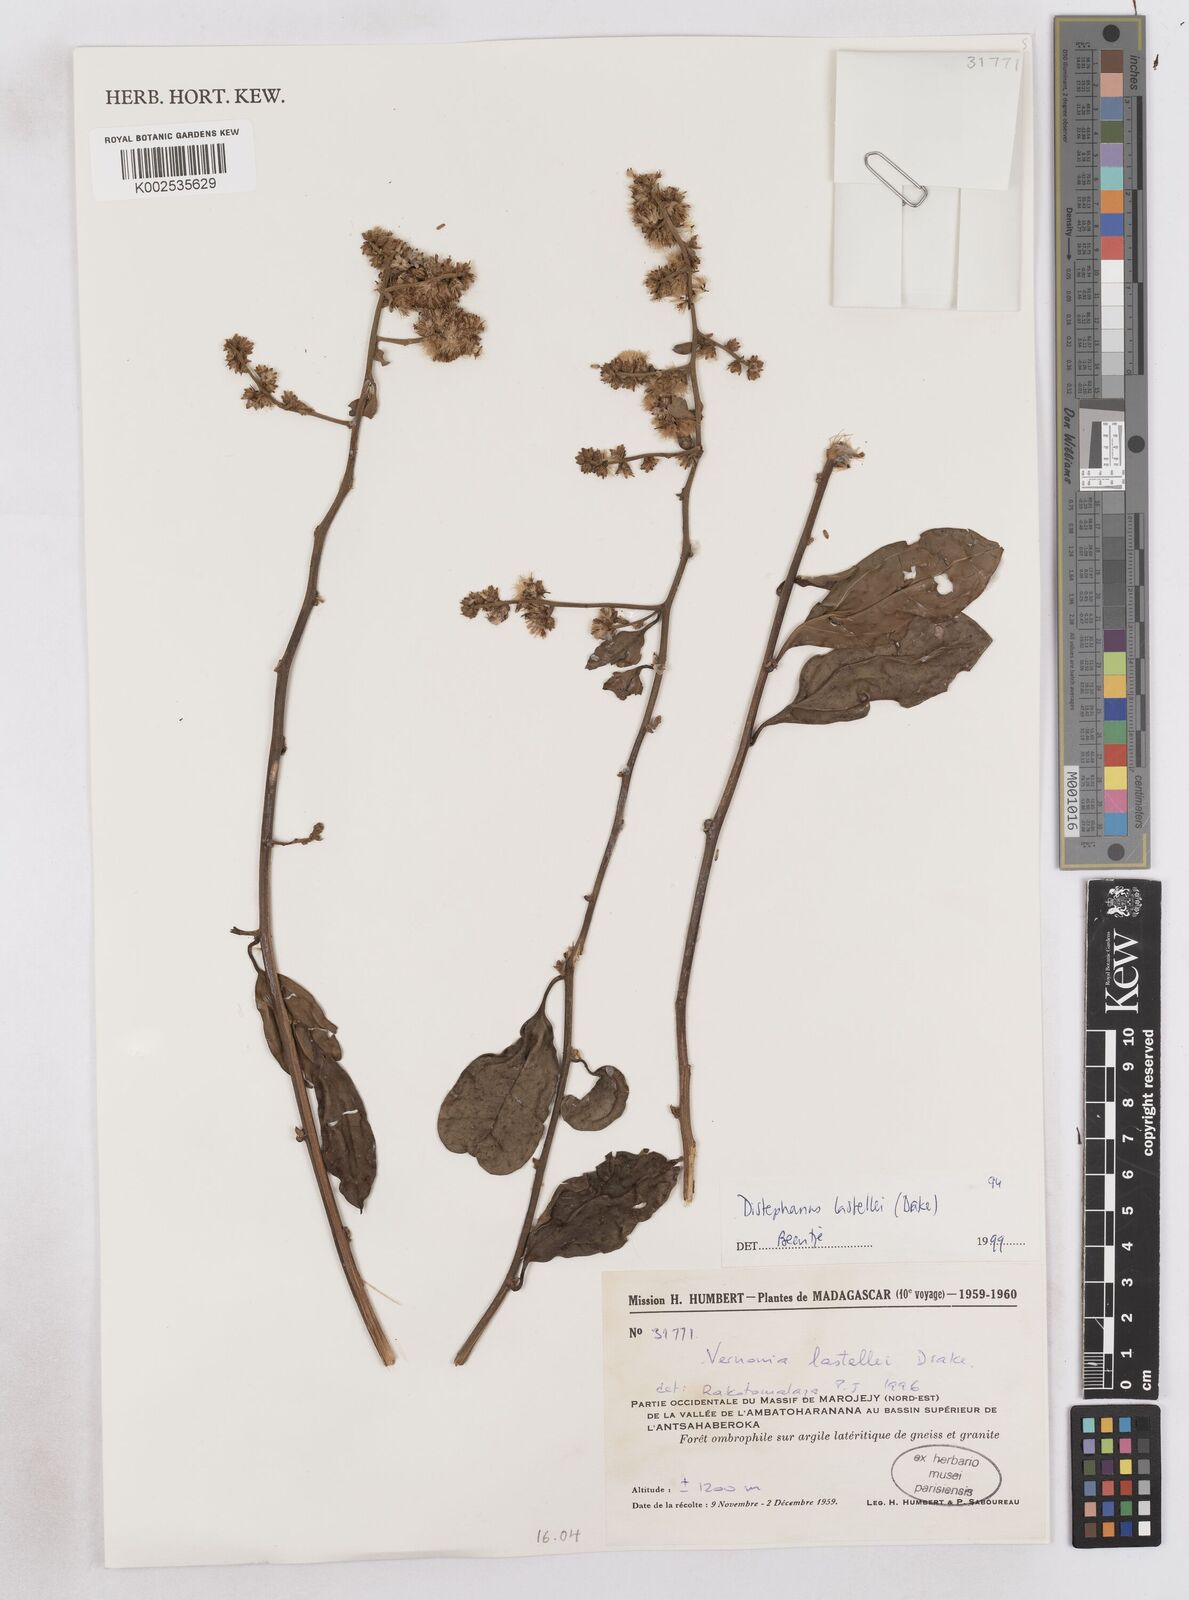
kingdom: Plantae
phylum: Tracheophyta
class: Magnoliopsida
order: Asterales
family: Asteraceae
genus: Distephanus
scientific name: Distephanus lastellei
